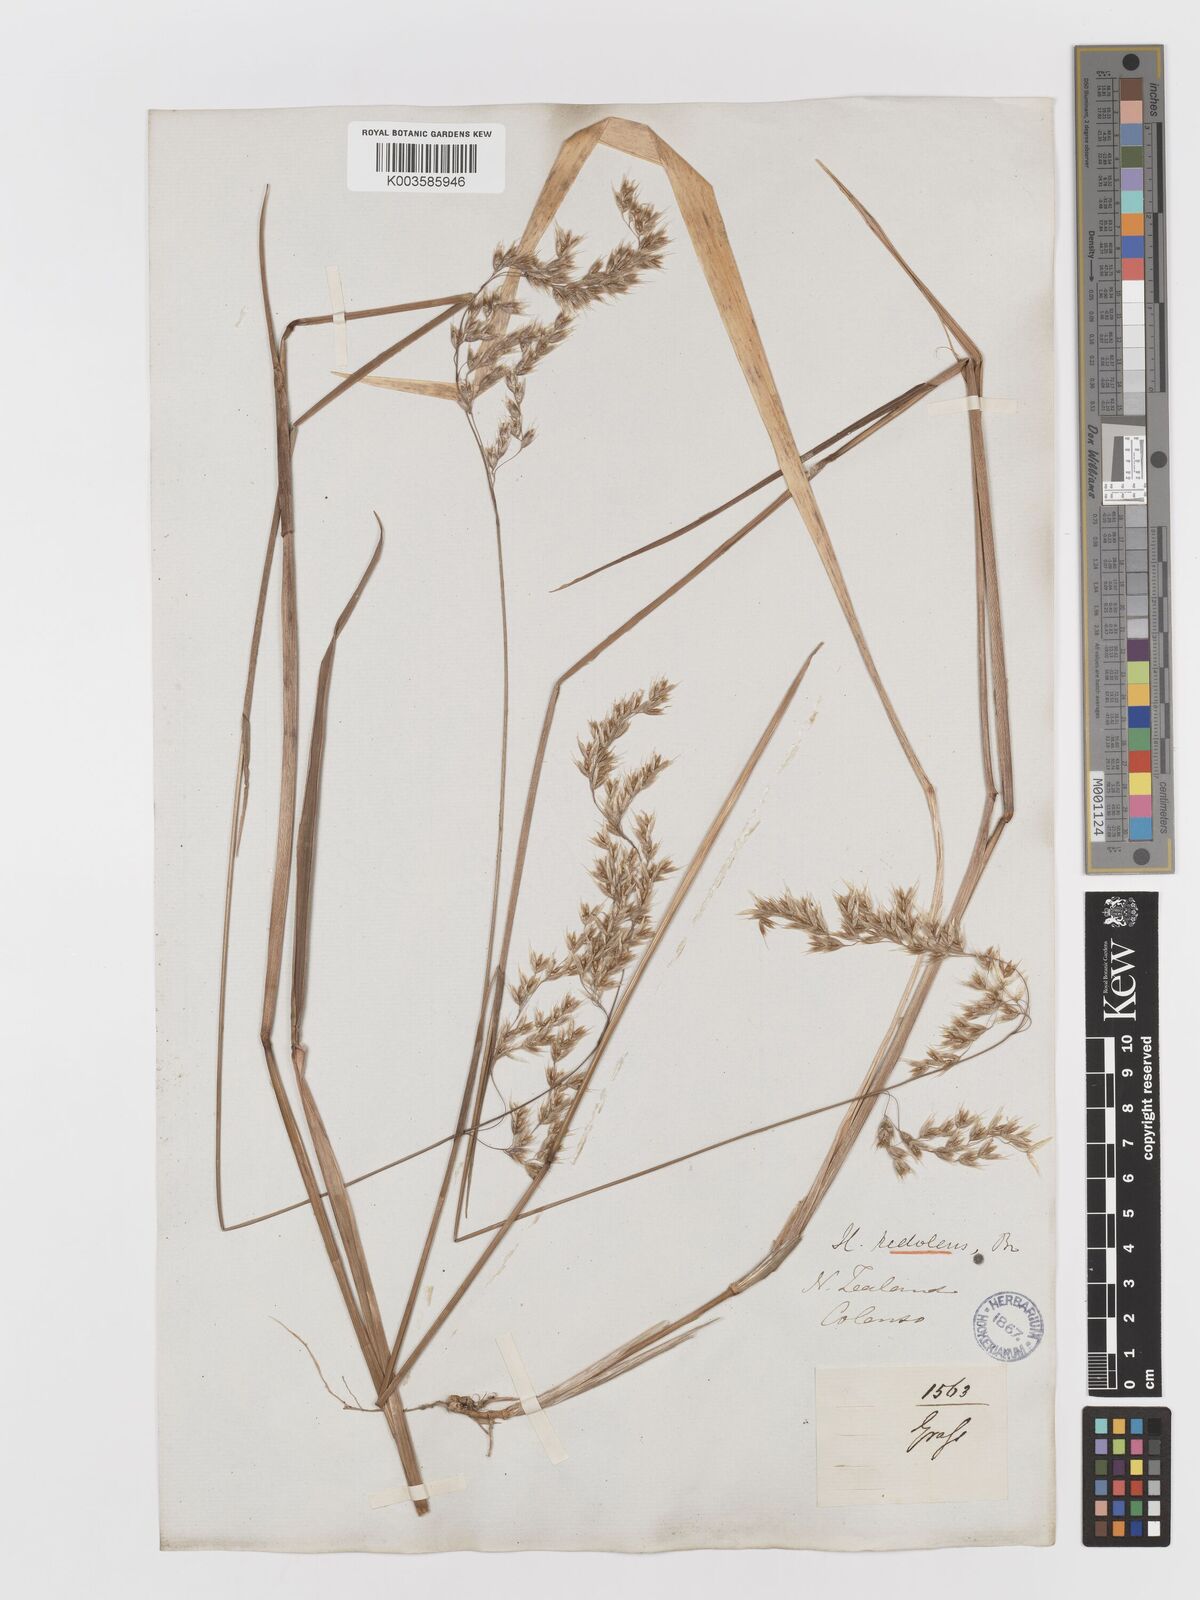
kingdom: Plantae
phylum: Tracheophyta
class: Liliopsida
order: Poales
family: Poaceae
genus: Anthoxanthum
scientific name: Anthoxanthum redolens
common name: Sweet holy grass
